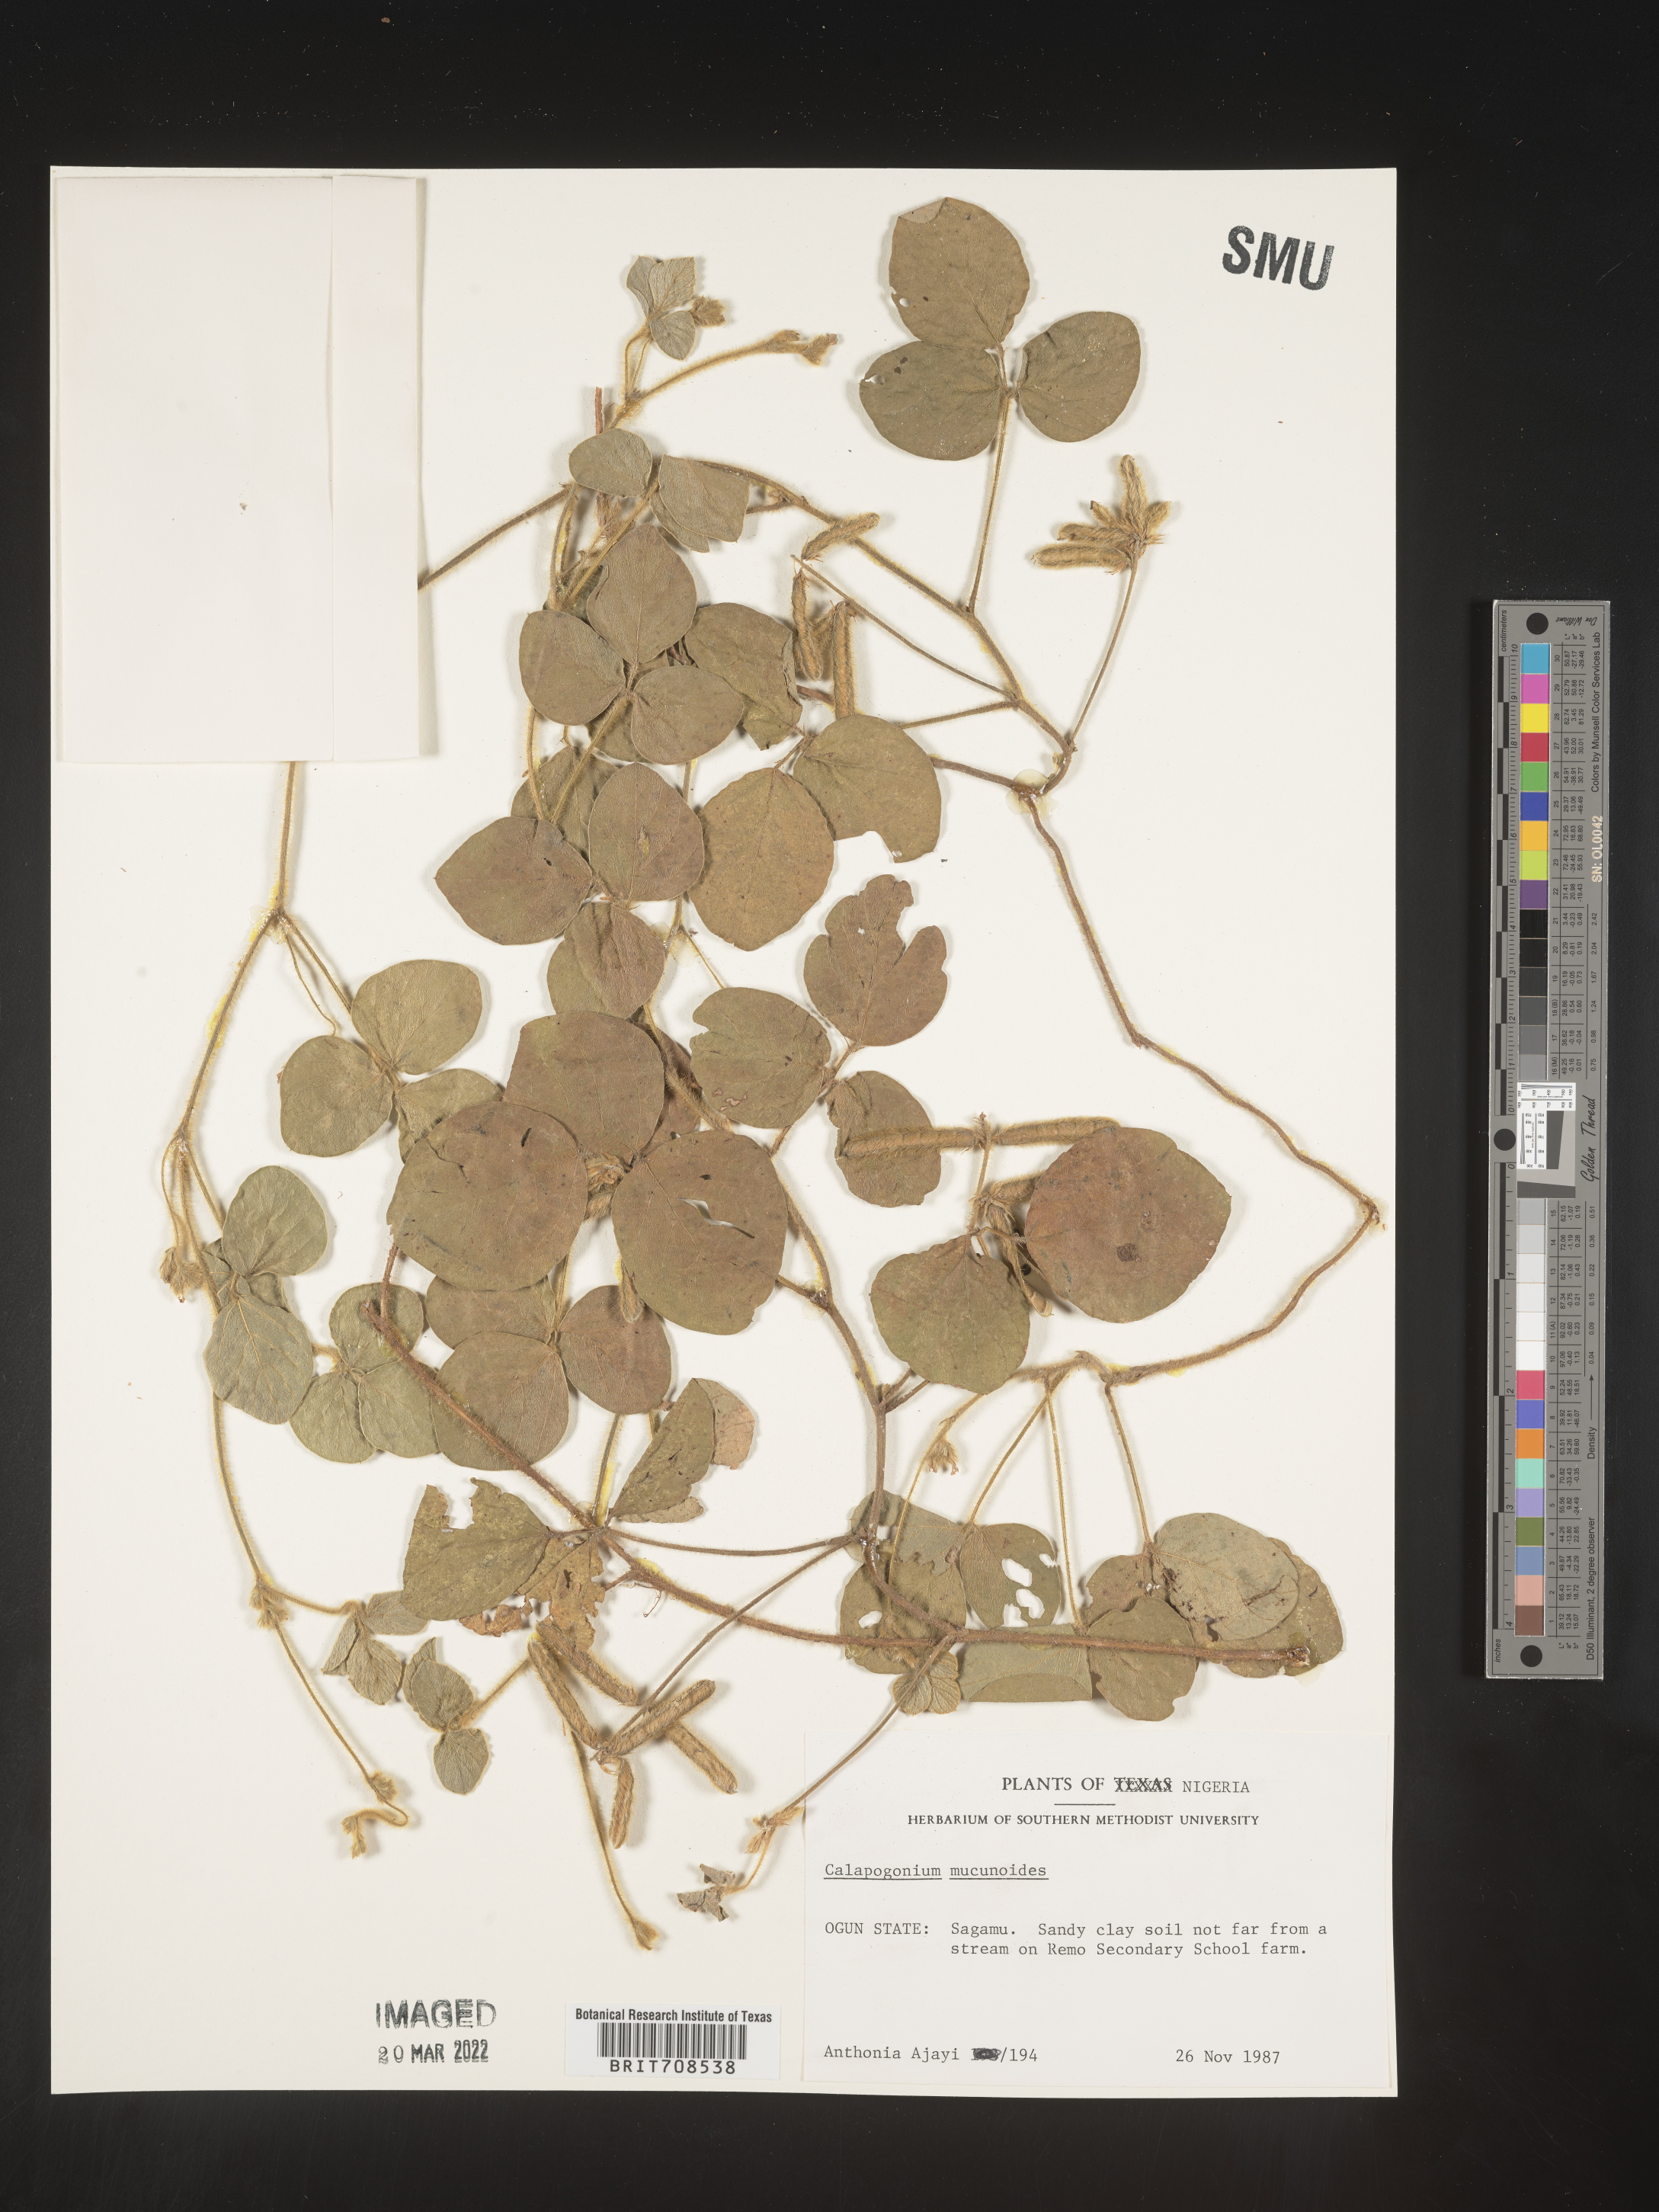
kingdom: Plantae
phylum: Tracheophyta
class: Magnoliopsida
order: Fabales
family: Fabaceae
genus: Calopogonium
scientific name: Calopogonium
